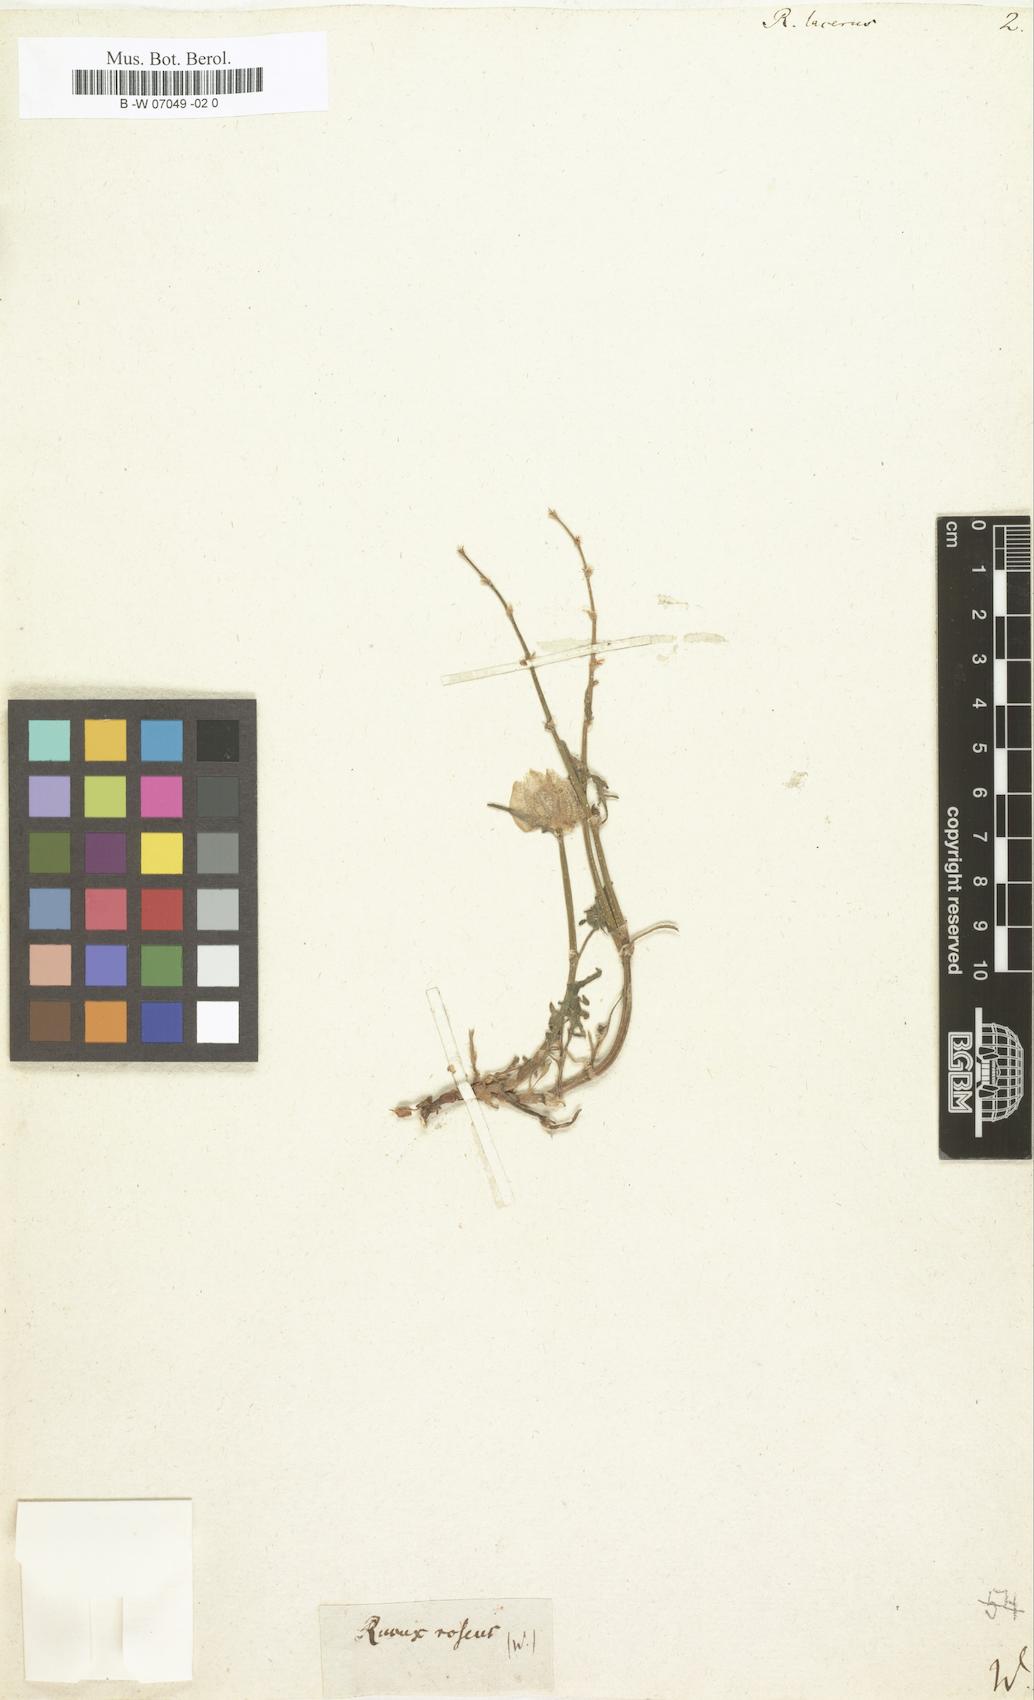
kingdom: Plantae
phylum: Tracheophyta
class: Magnoliopsida
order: Caryophyllales
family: Polygonaceae
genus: Rumex
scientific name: Rumex
